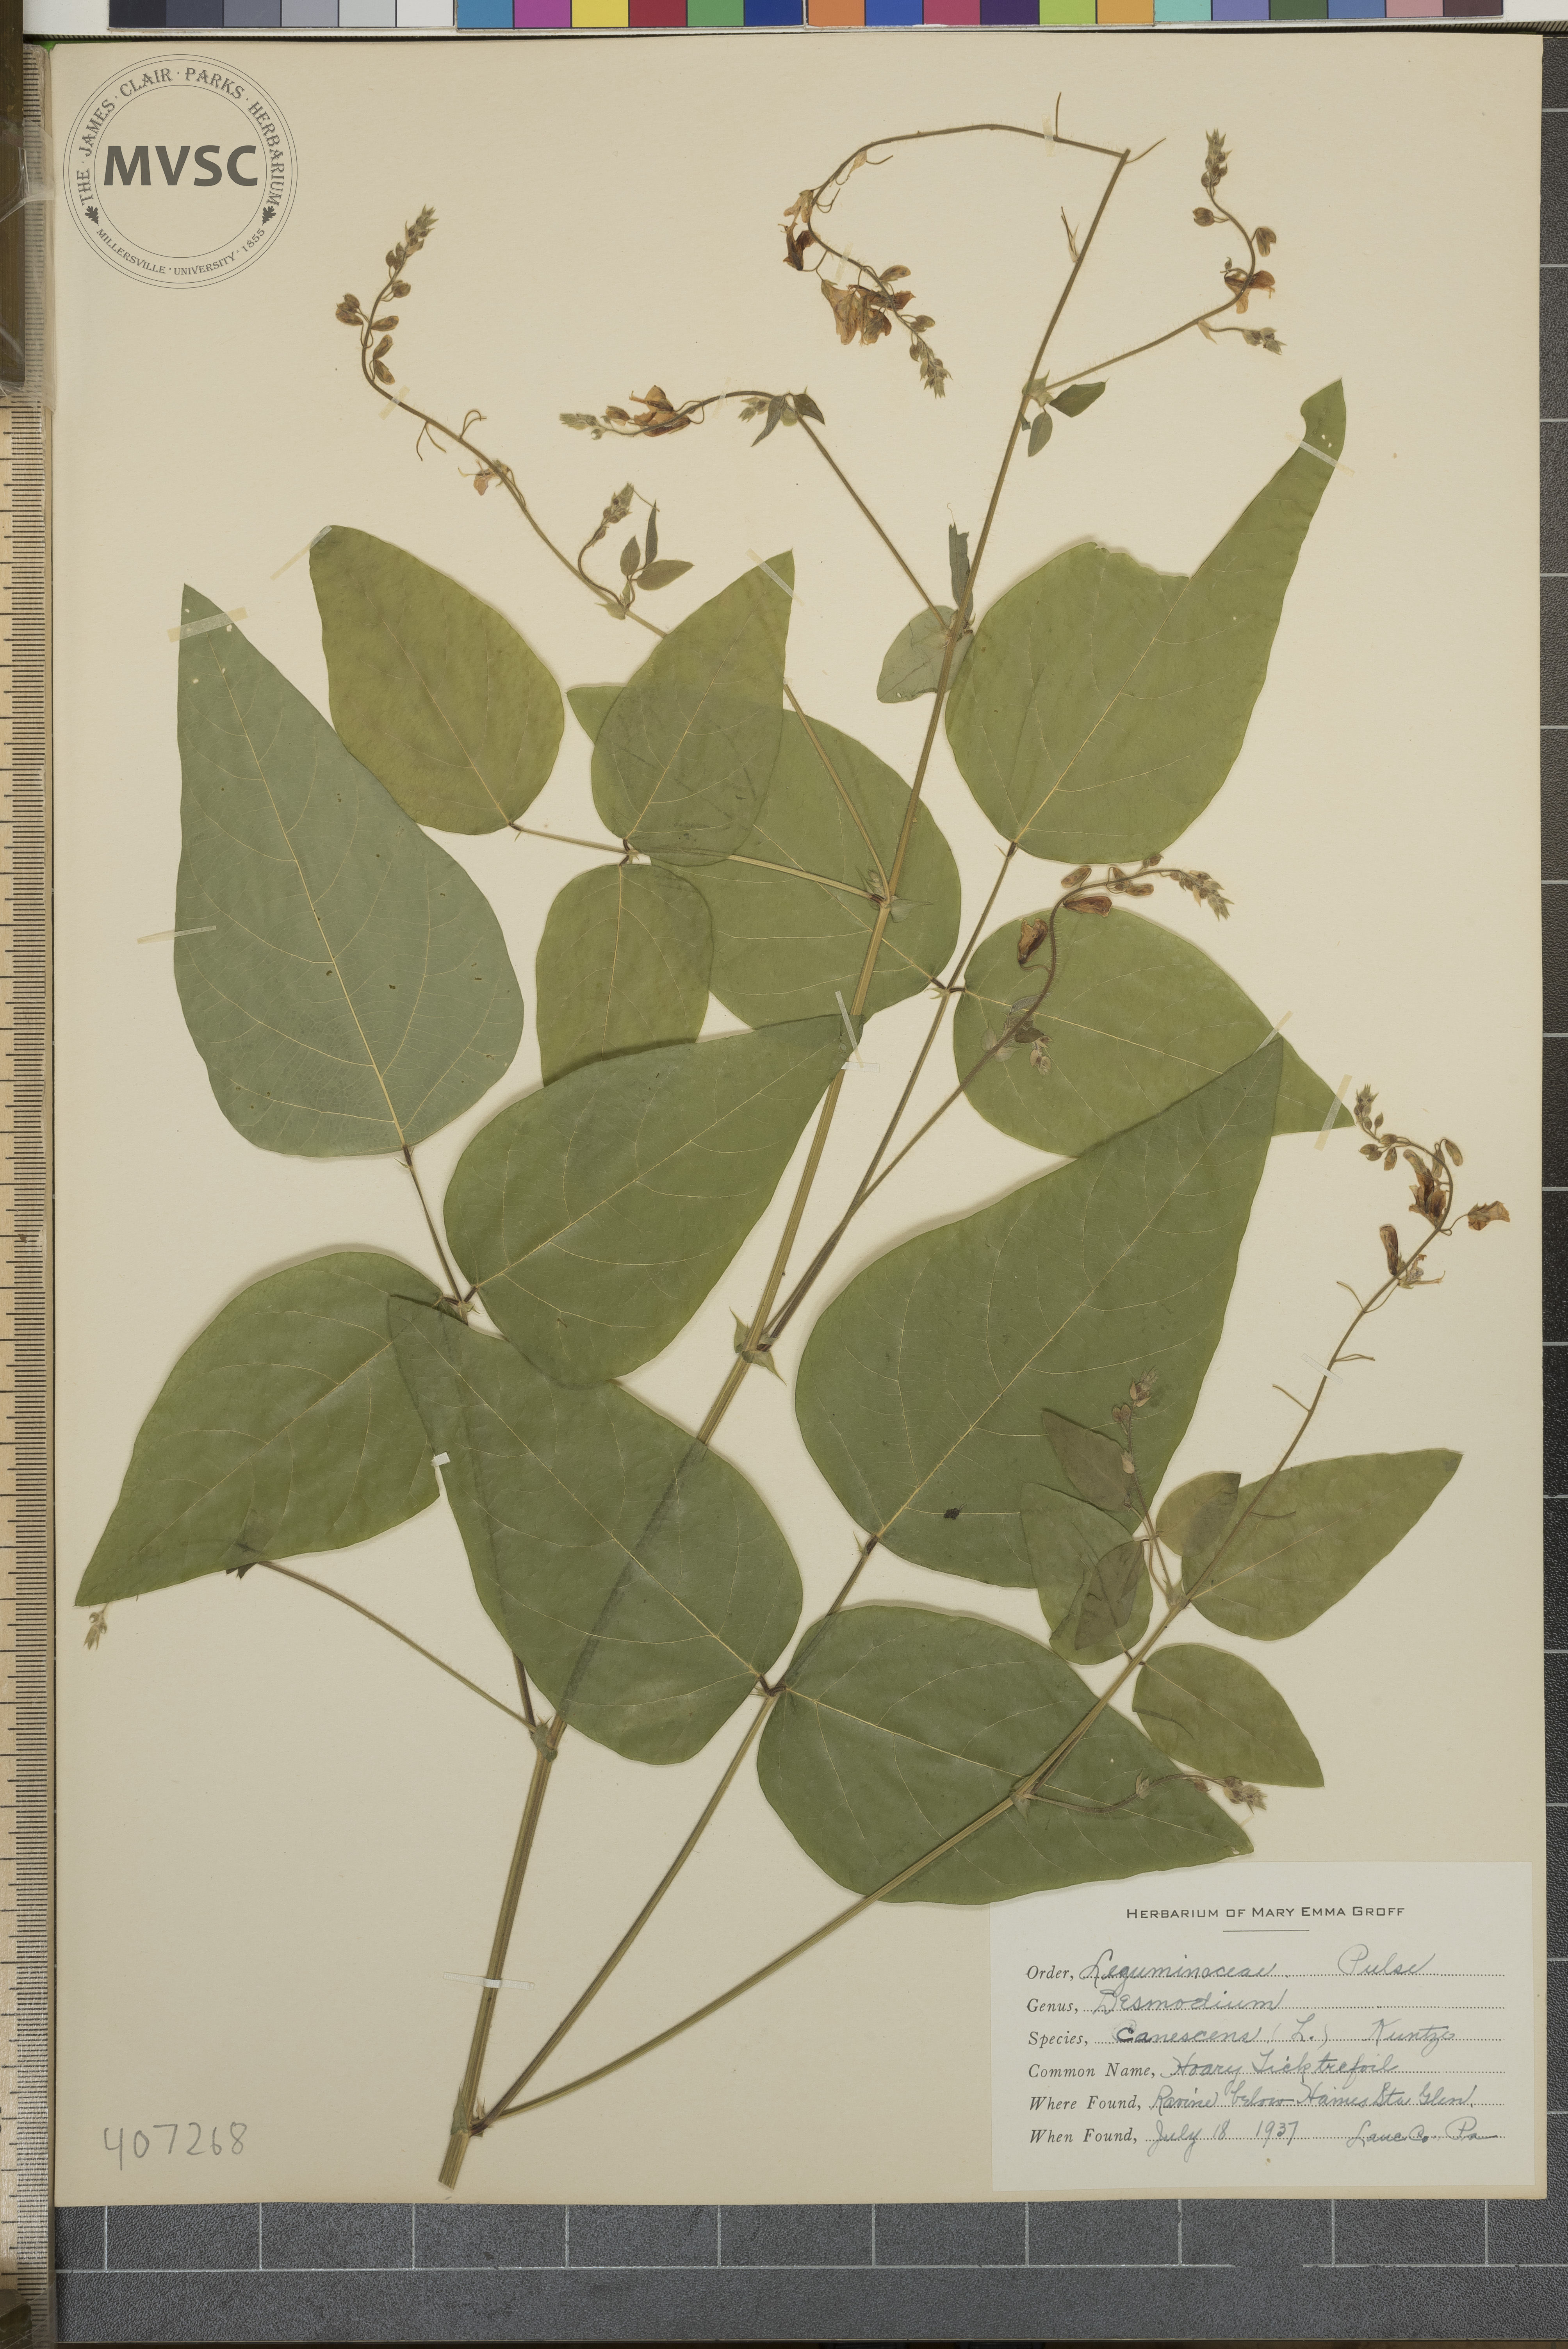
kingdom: Plantae
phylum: Tracheophyta
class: Magnoliopsida
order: Fabales
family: Fabaceae
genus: Desmodium
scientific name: Desmodium canescens
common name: Hoary Tick-trefoil
